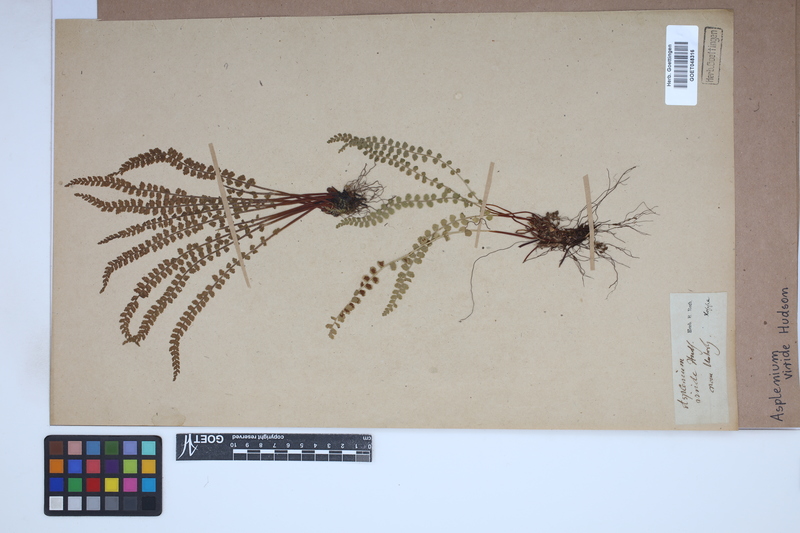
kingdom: Plantae
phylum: Tracheophyta
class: Polypodiopsida
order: Polypodiales
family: Aspleniaceae
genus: Asplenium
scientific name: Asplenium viride
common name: Green spleenwort
